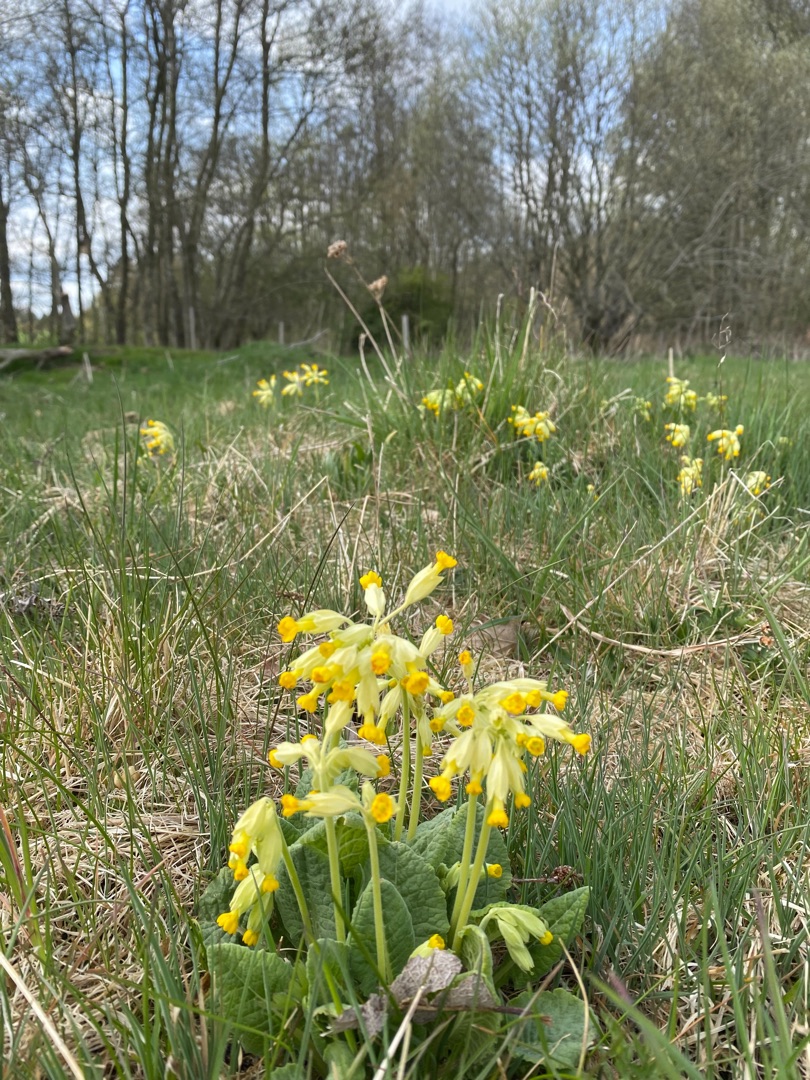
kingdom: Plantae
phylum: Tracheophyta
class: Magnoliopsida
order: Ericales
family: Primulaceae
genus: Primula
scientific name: Primula veris
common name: Hulkravet kodriver
